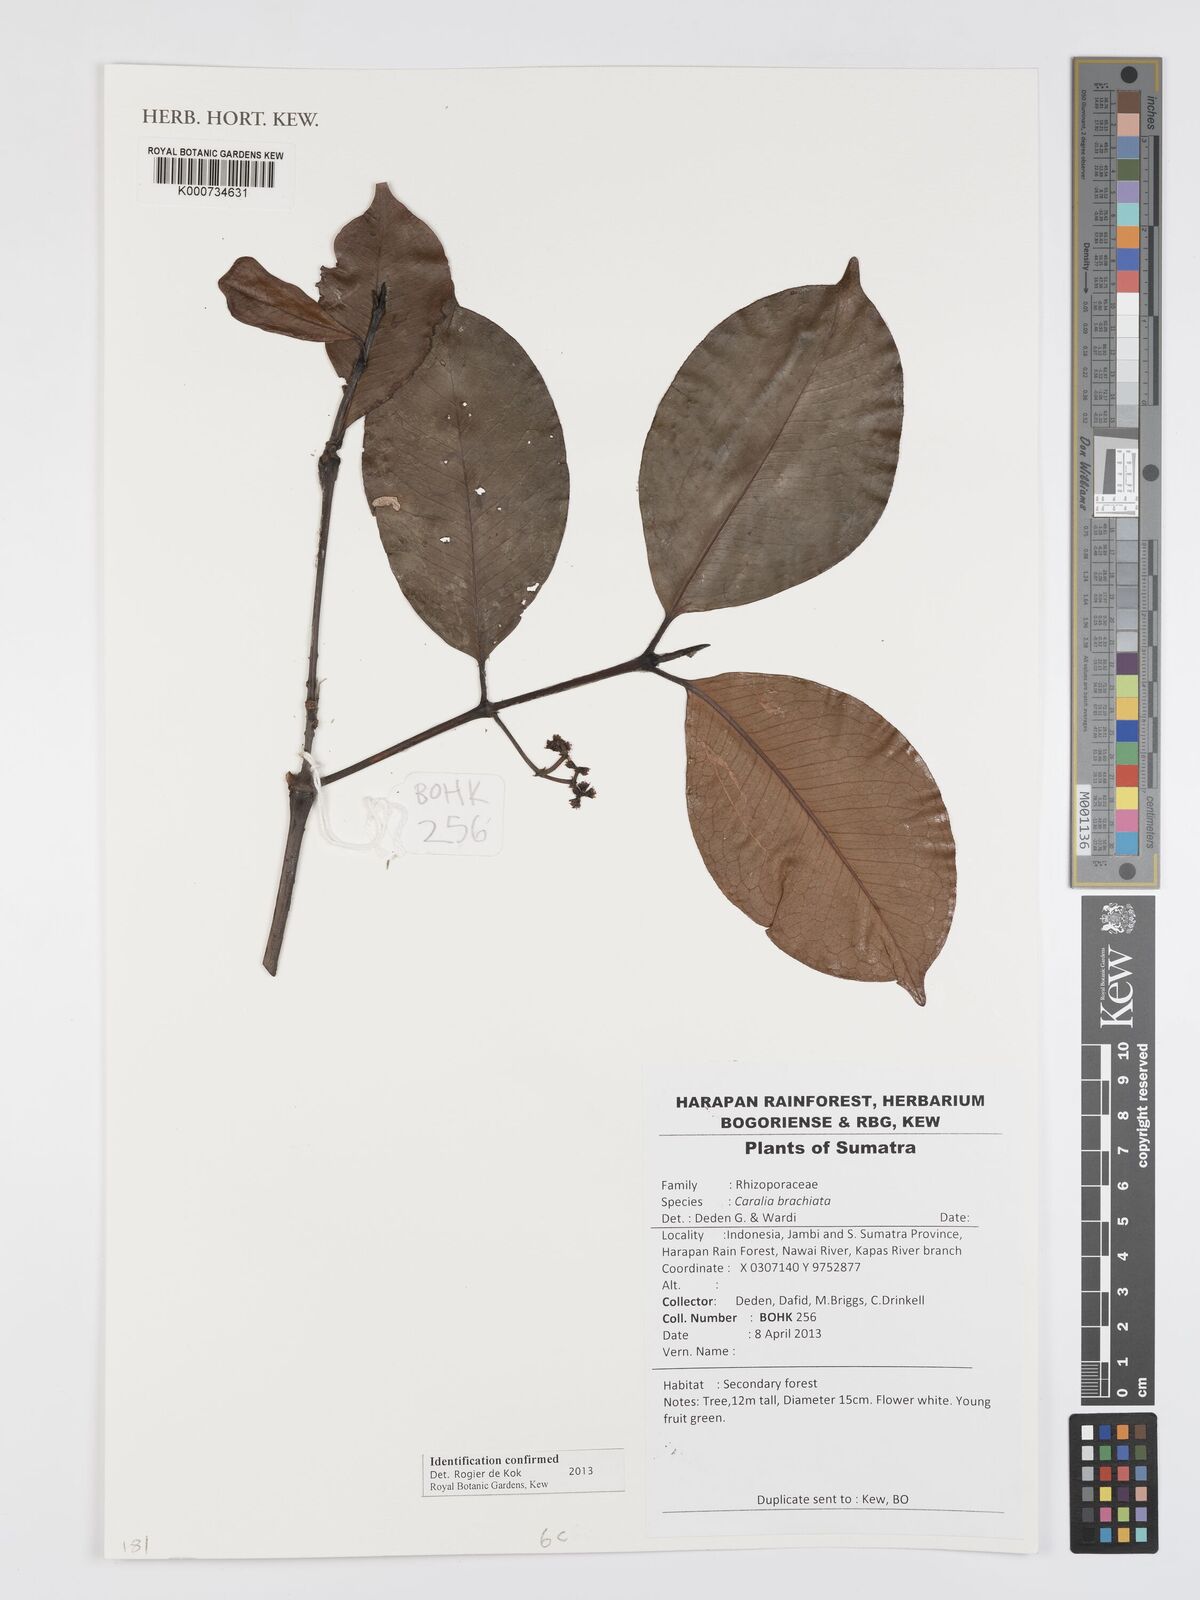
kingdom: Plantae
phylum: Tracheophyta
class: Magnoliopsida
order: Malpighiales
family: Rhizophoraceae
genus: Carallia
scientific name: Carallia brachiata
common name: Carallawood
